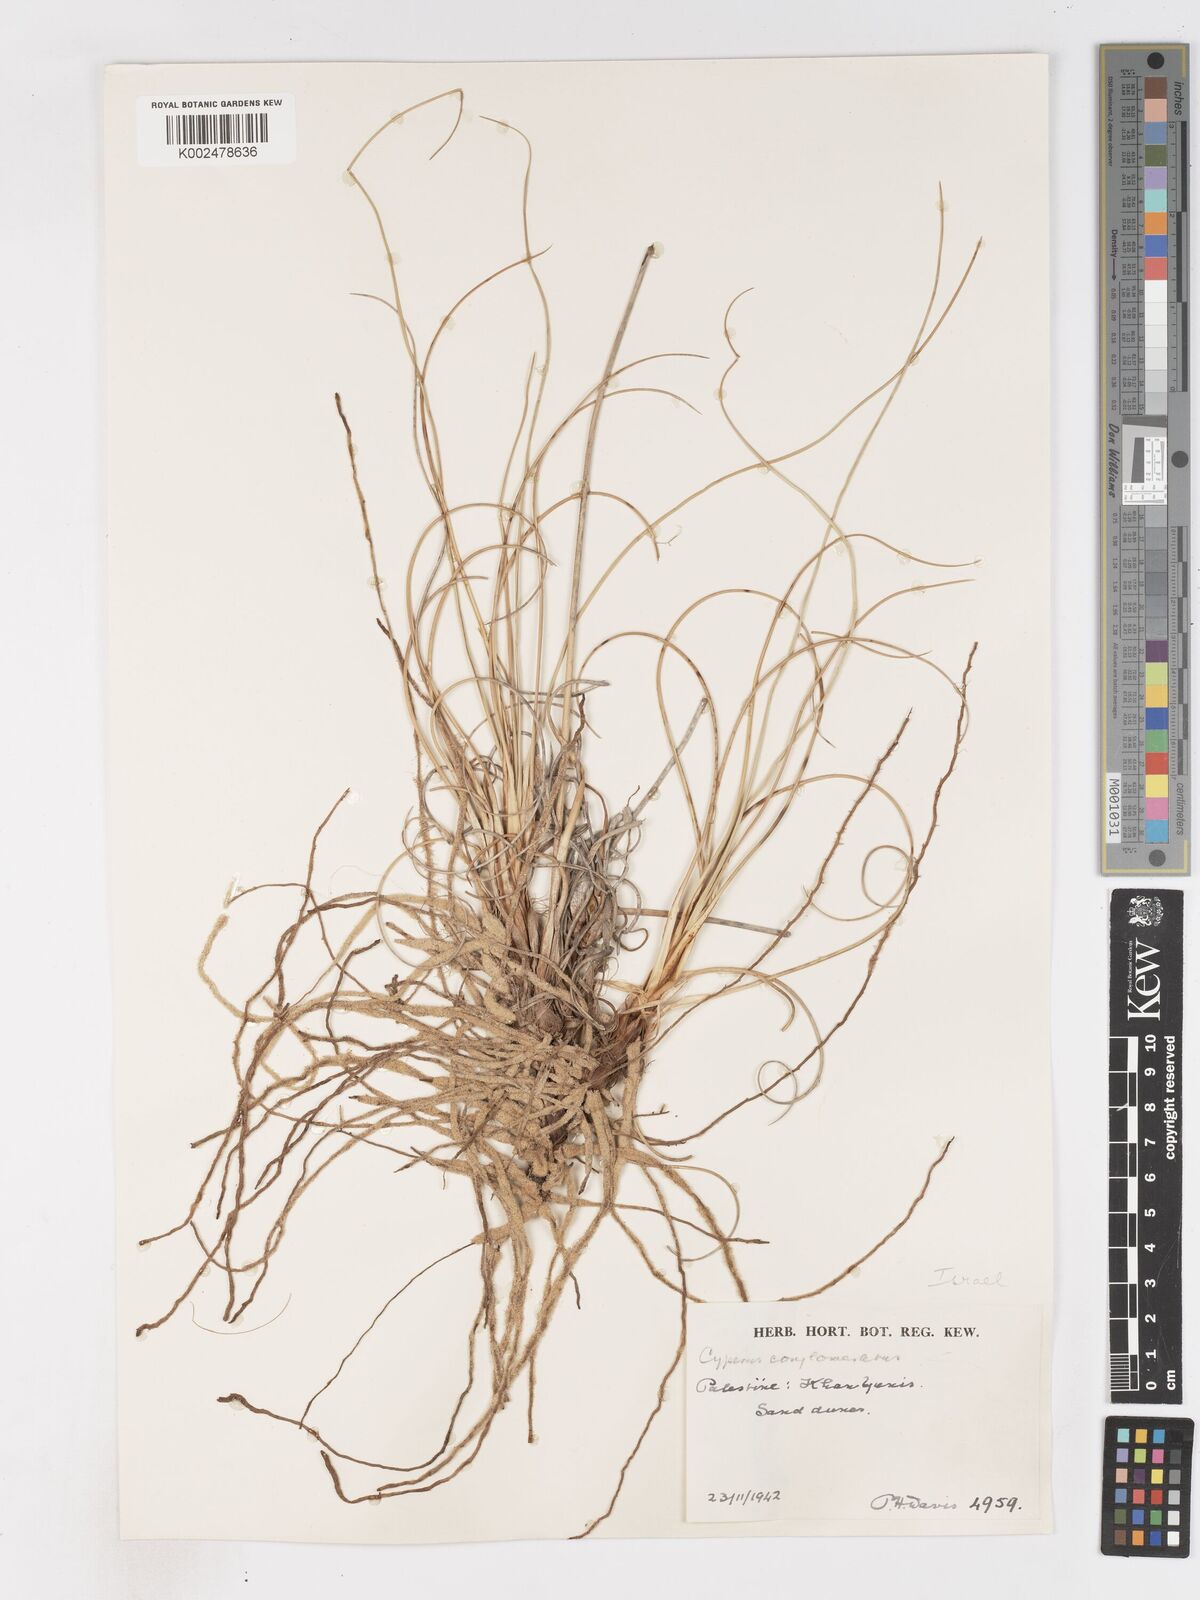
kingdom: Plantae
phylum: Tracheophyta
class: Liliopsida
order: Poales
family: Cyperaceae
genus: Cyperus
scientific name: Cyperus conglomeratus
